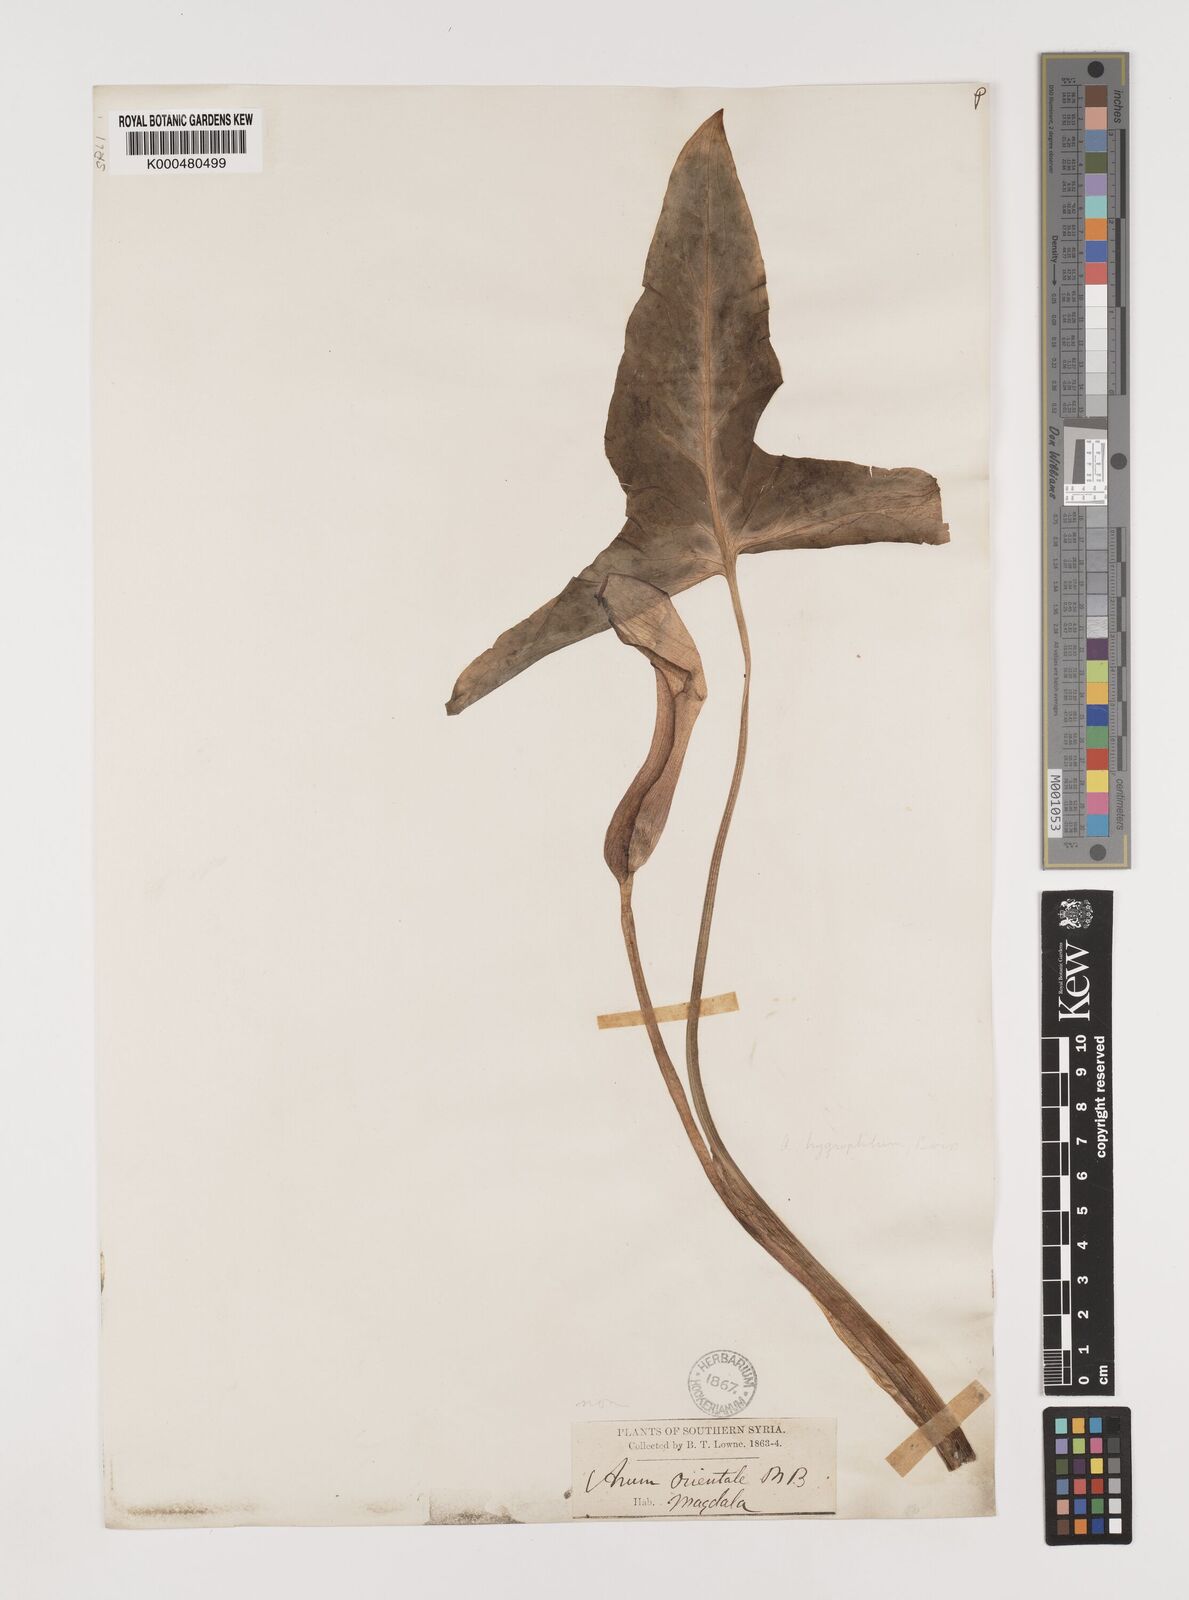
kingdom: Plantae
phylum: Tracheophyta
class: Liliopsida
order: Alismatales
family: Araceae
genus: Arum
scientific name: Arum hygrophilum
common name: Water arum
